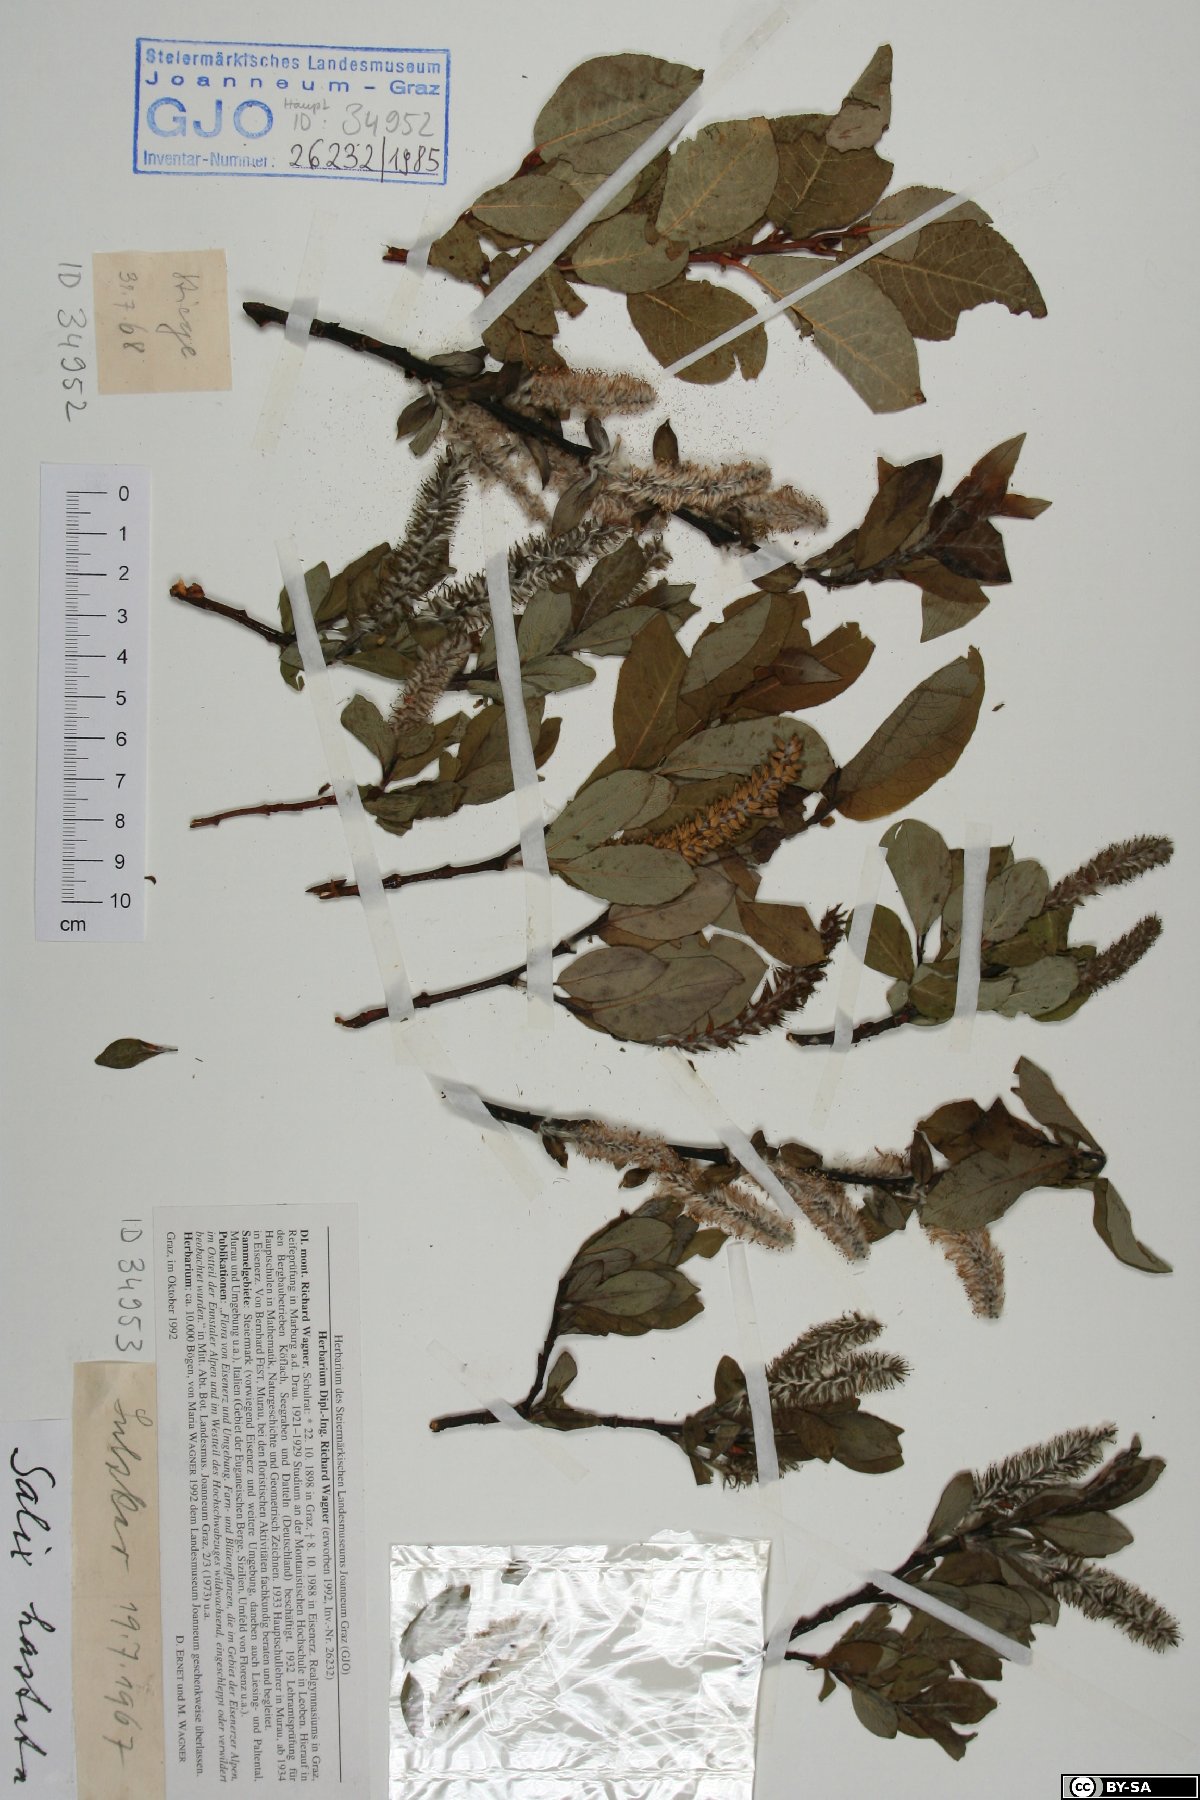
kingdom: Plantae
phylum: Tracheophyta
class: Magnoliopsida
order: Malpighiales
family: Salicaceae
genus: Salix
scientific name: Salix hastata
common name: Halberd willow
